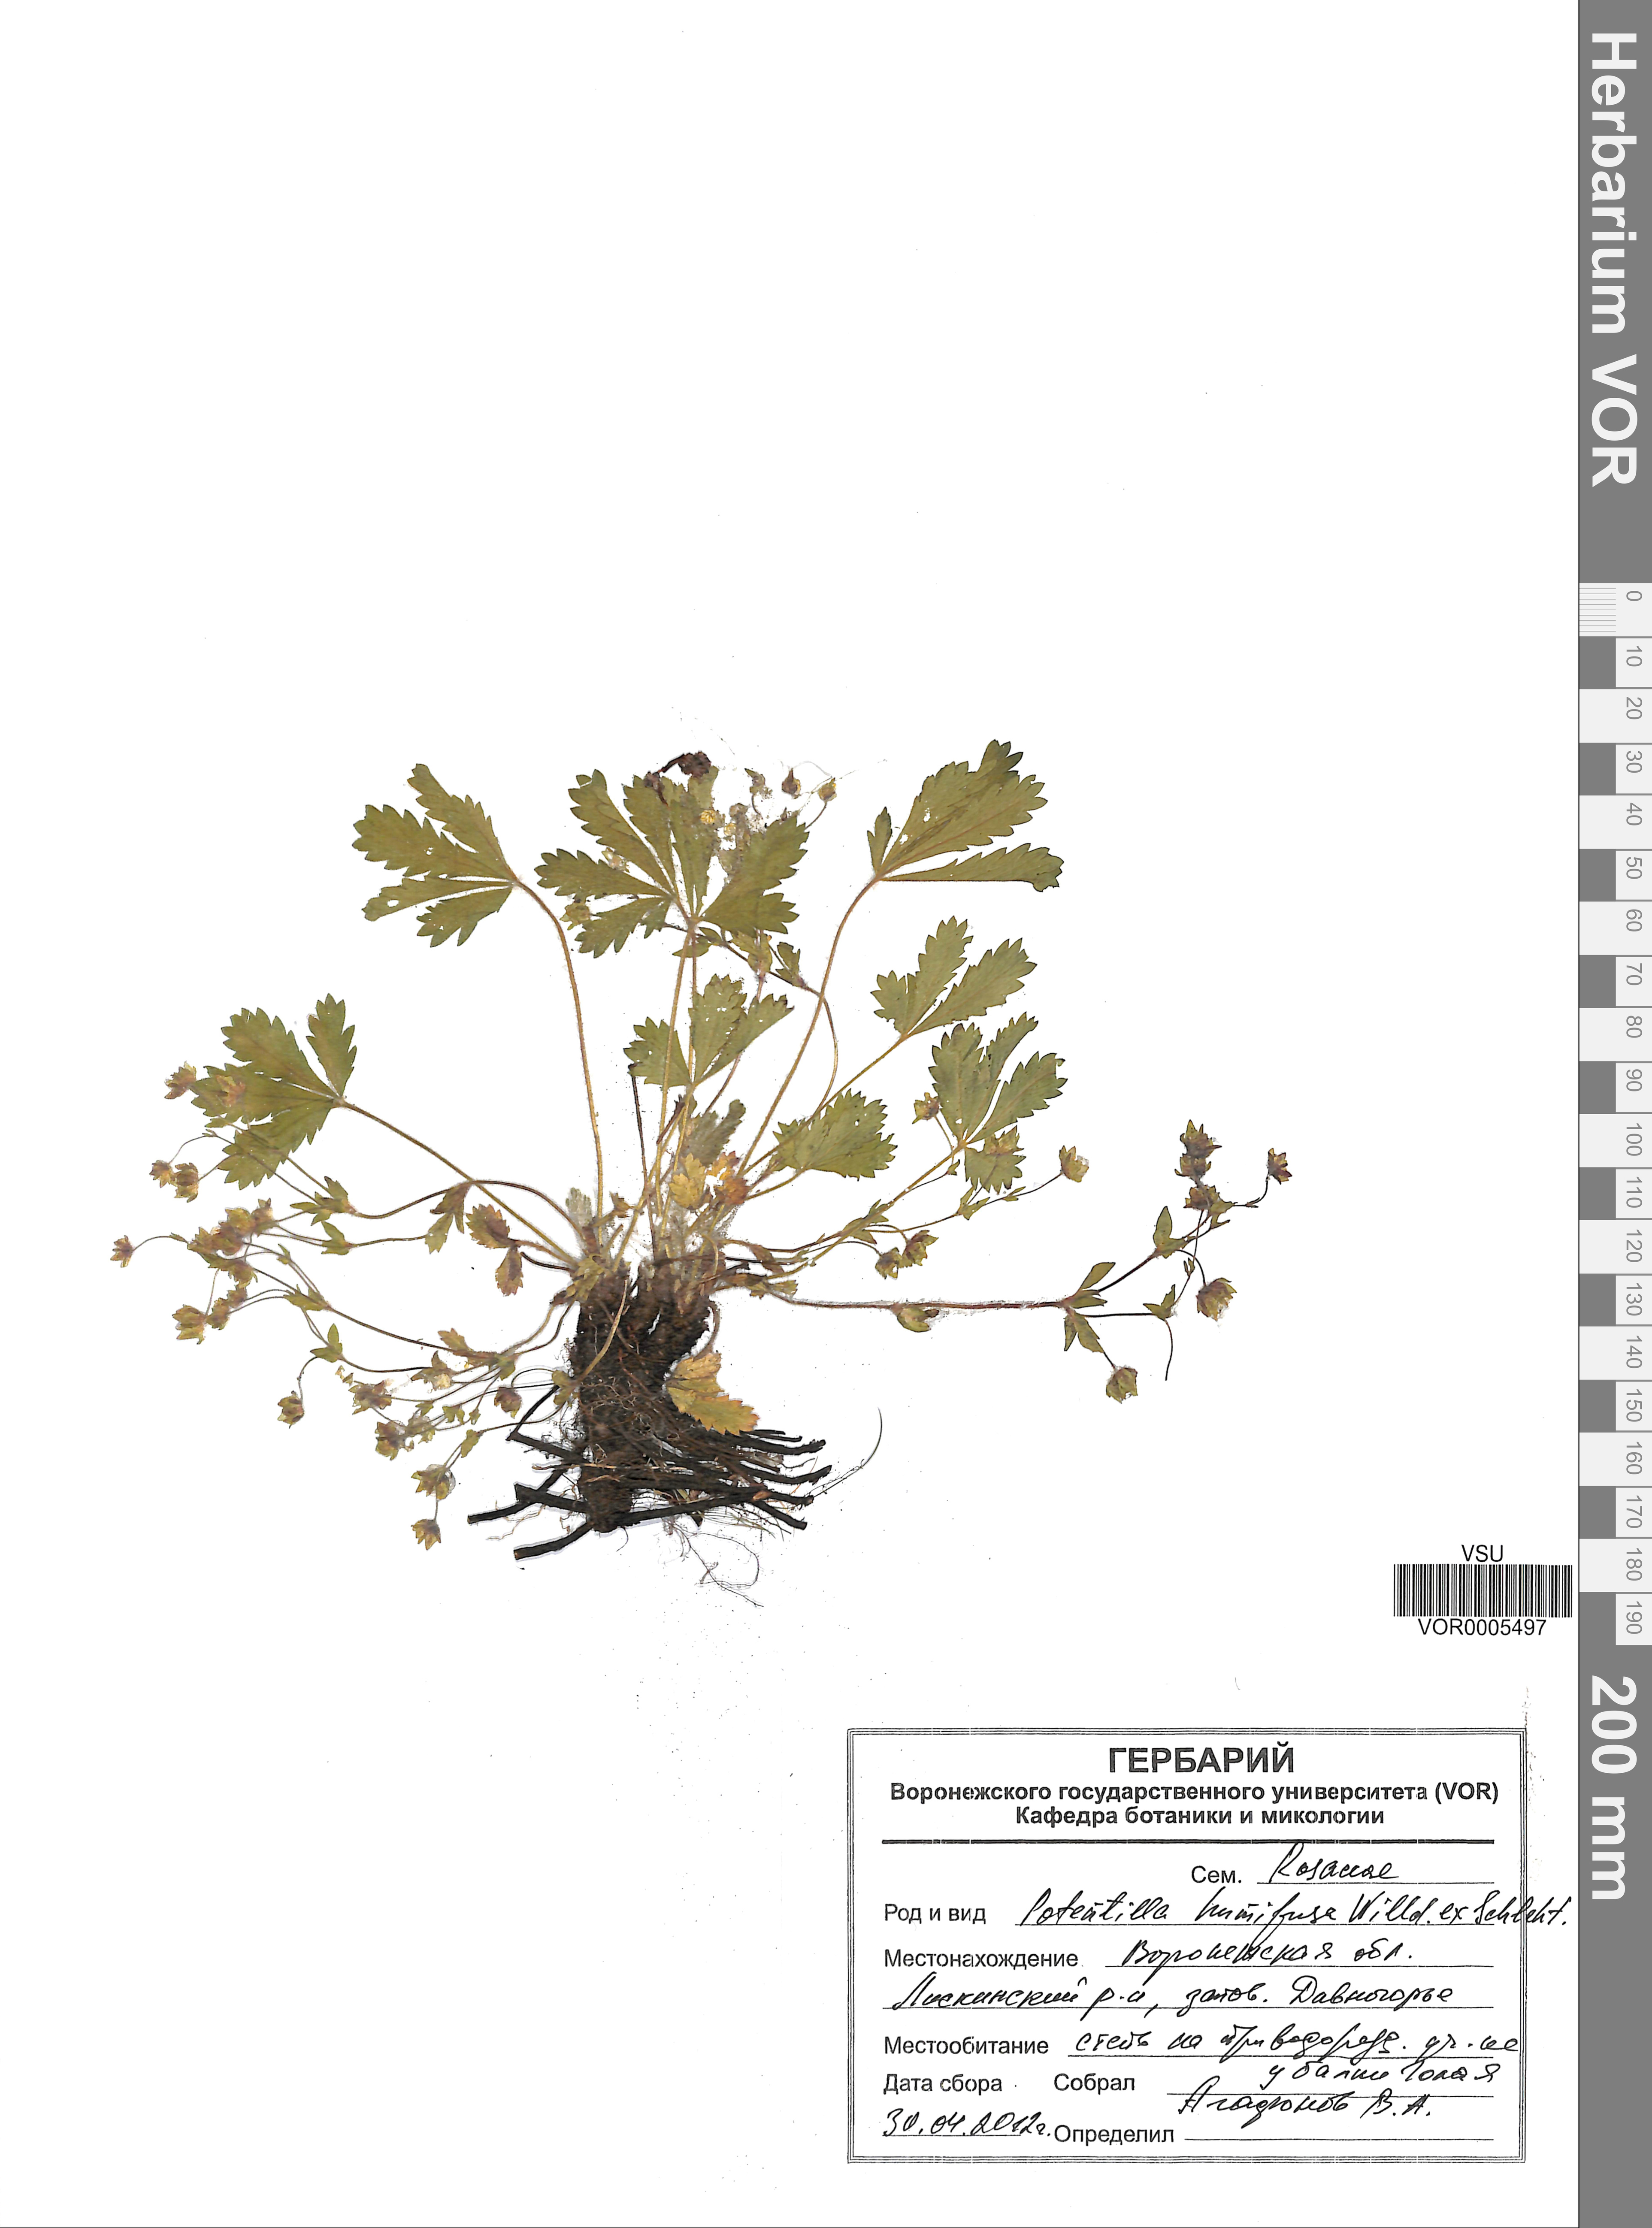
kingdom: Plantae
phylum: Tracheophyta
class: Magnoliopsida
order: Rosales
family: Rosaceae
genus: Potentilla
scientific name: Potentilla humifusa
